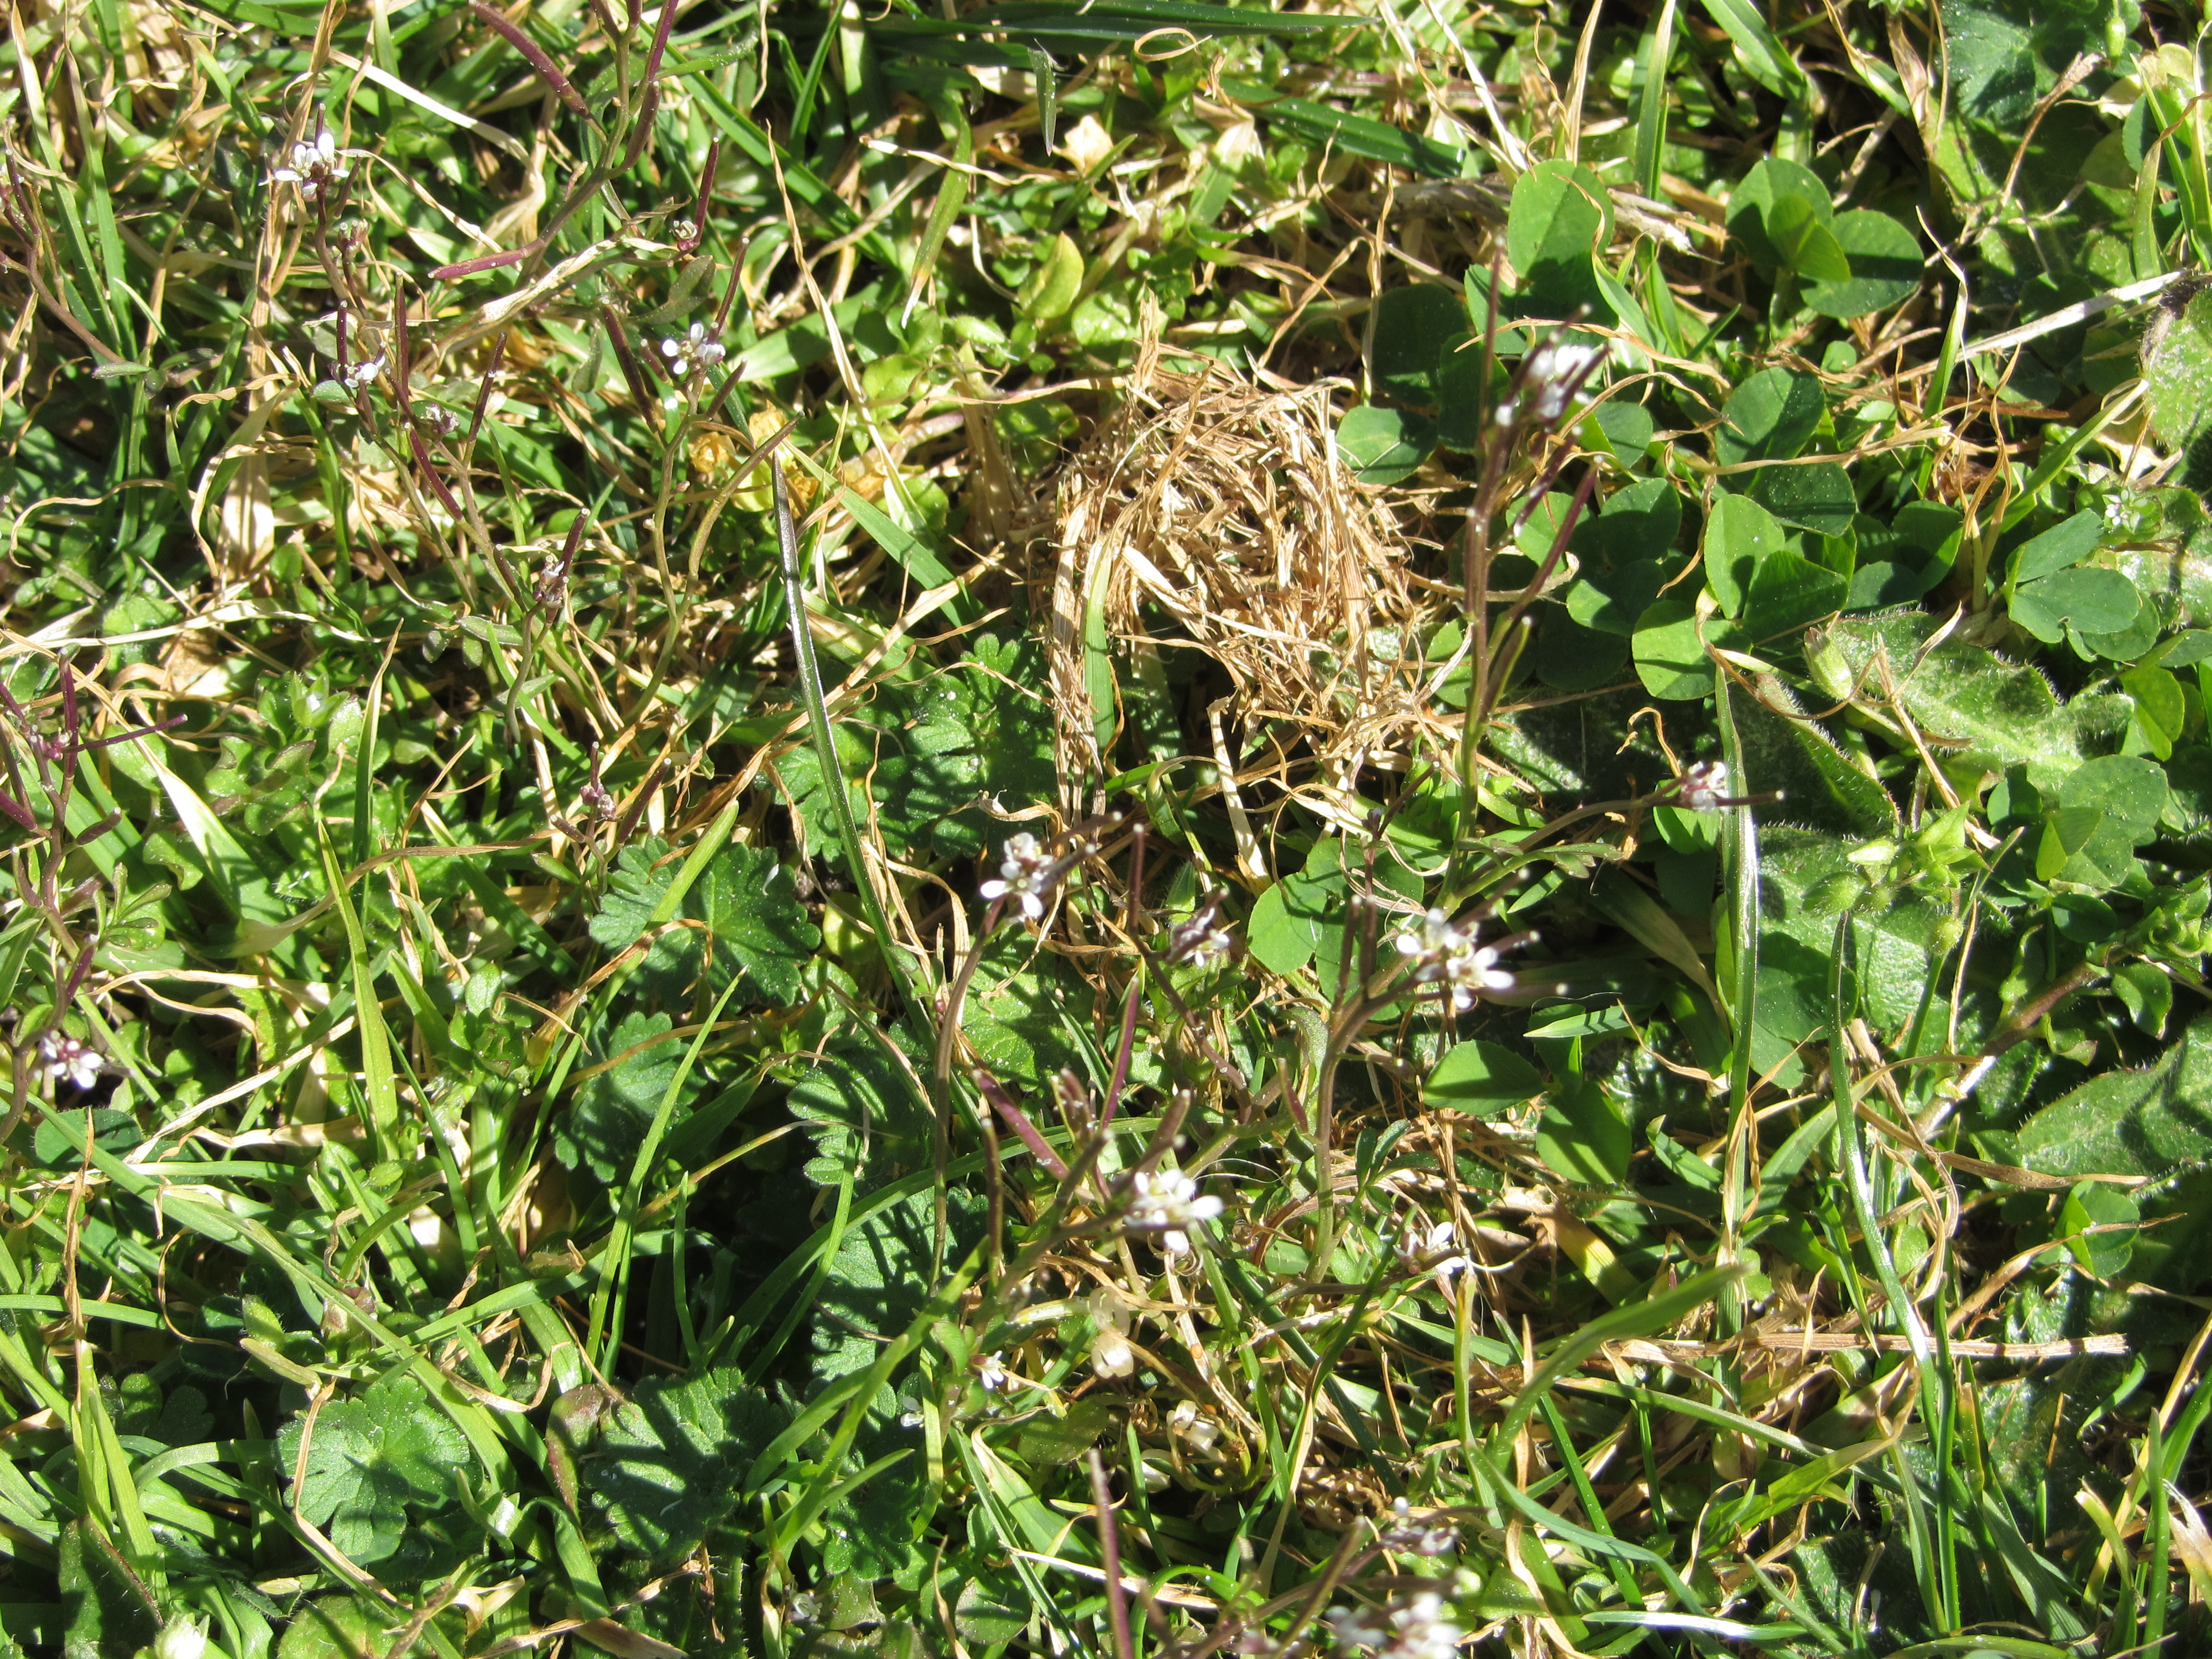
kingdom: Plantae
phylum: Tracheophyta
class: Magnoliopsida
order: Brassicales
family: Brassicaceae
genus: Cardamine
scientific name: Cardamine hirsuta
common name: Hairy bittercress
